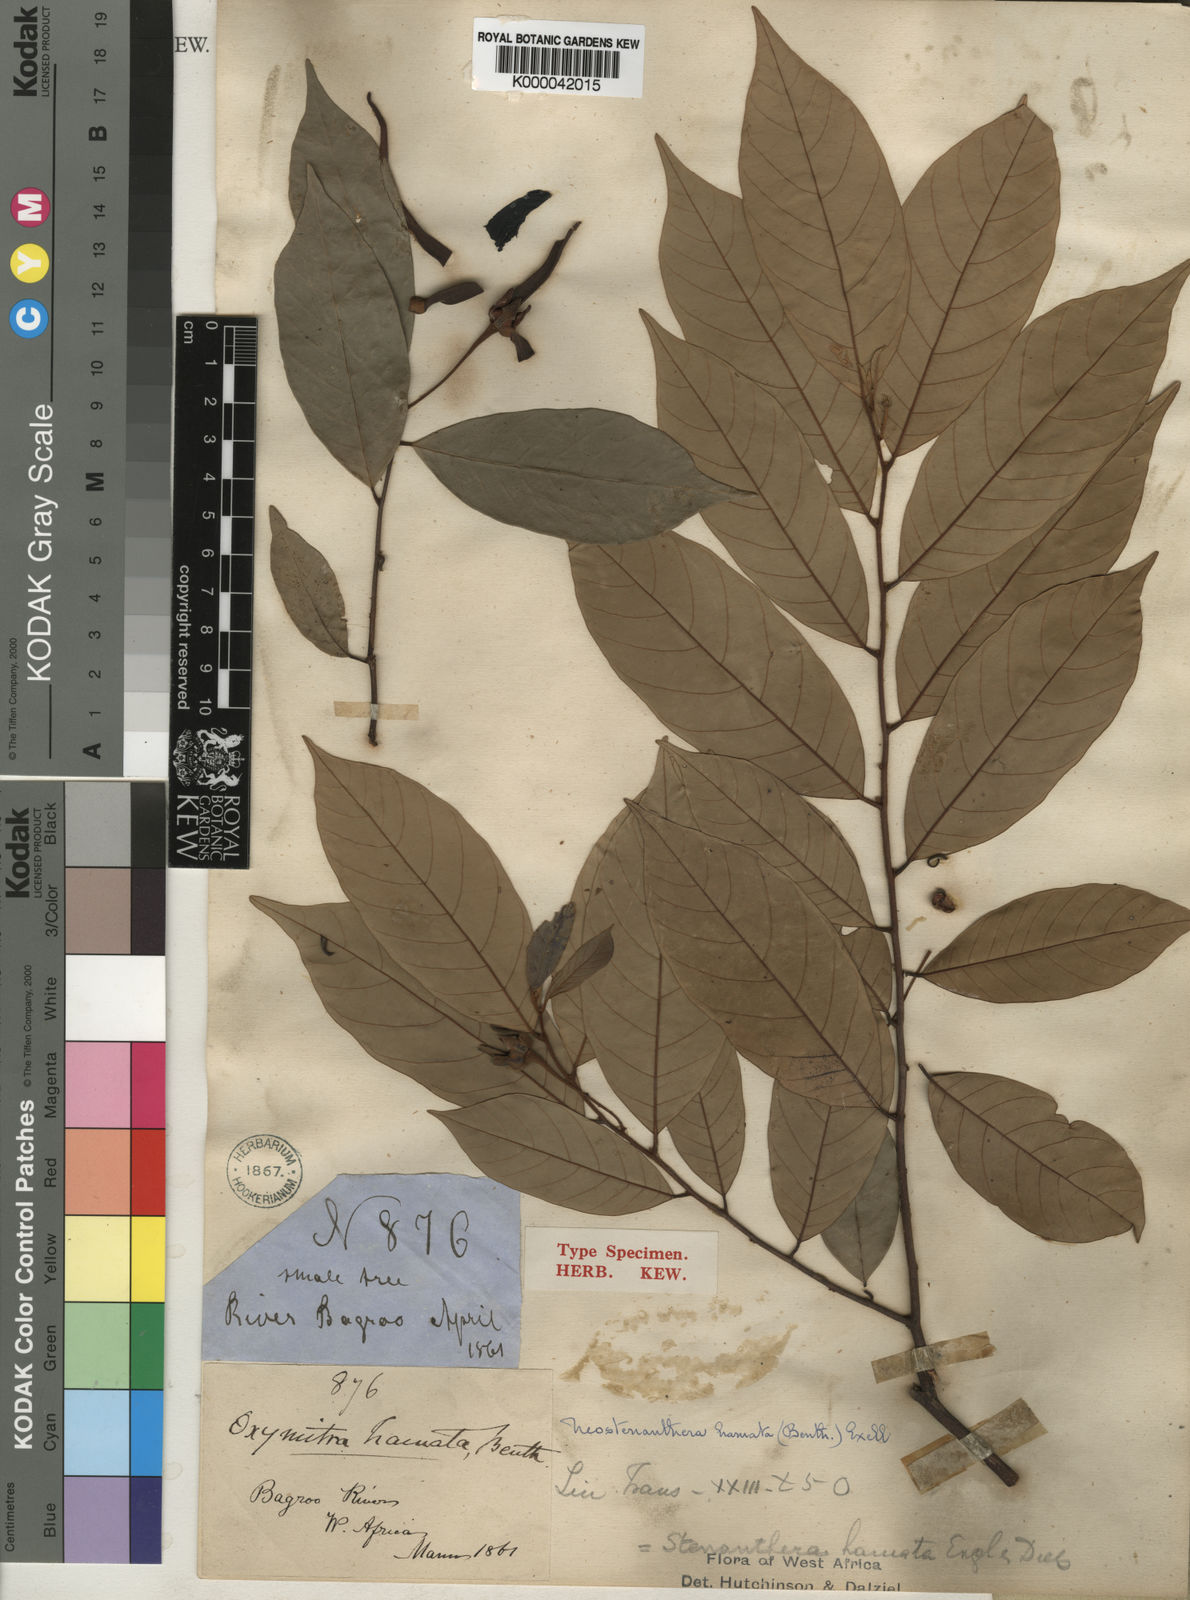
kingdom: Plantae
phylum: Tracheophyta
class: Magnoliopsida
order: Magnoliales
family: Annonaceae
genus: Neostenanthera
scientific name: Neostenanthera hamata
